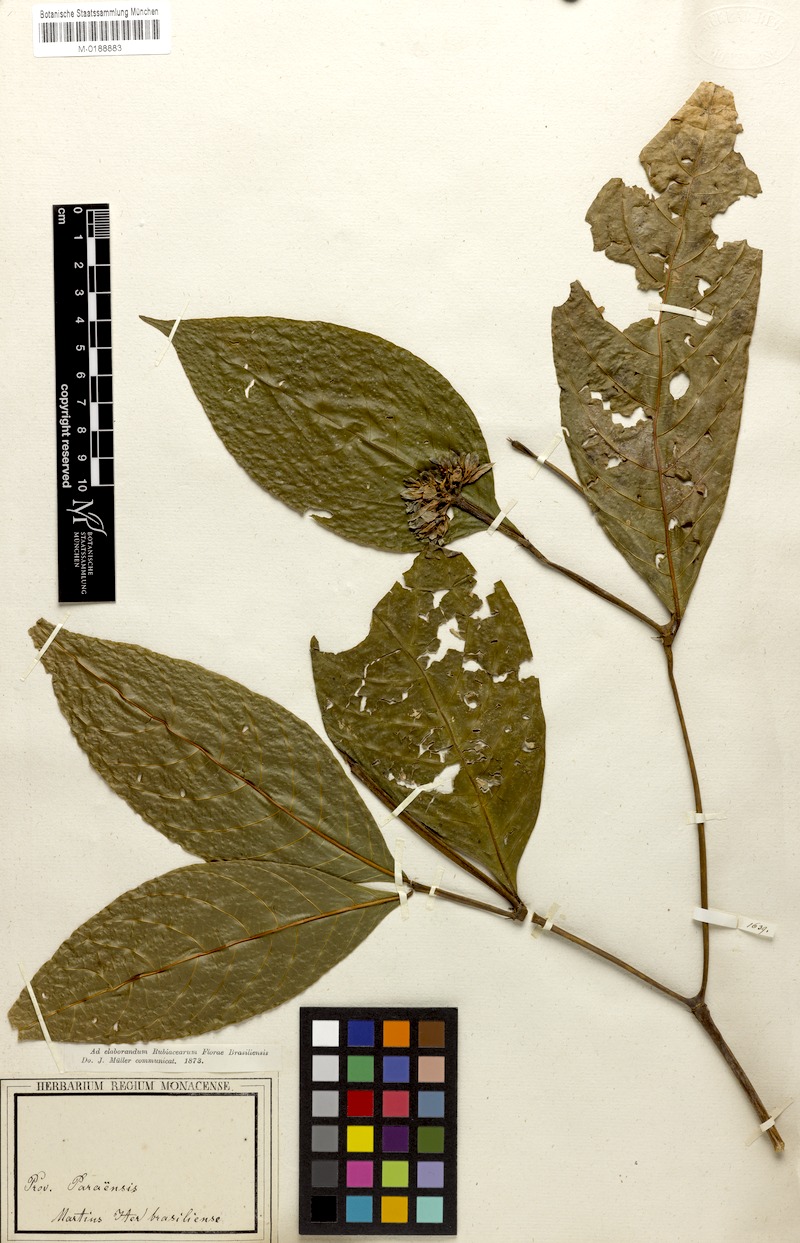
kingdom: Plantae
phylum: Tracheophyta
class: Magnoliopsida
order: Gentianales
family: Rubiaceae
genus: Palicourea
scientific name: Palicourea justiciifolia
